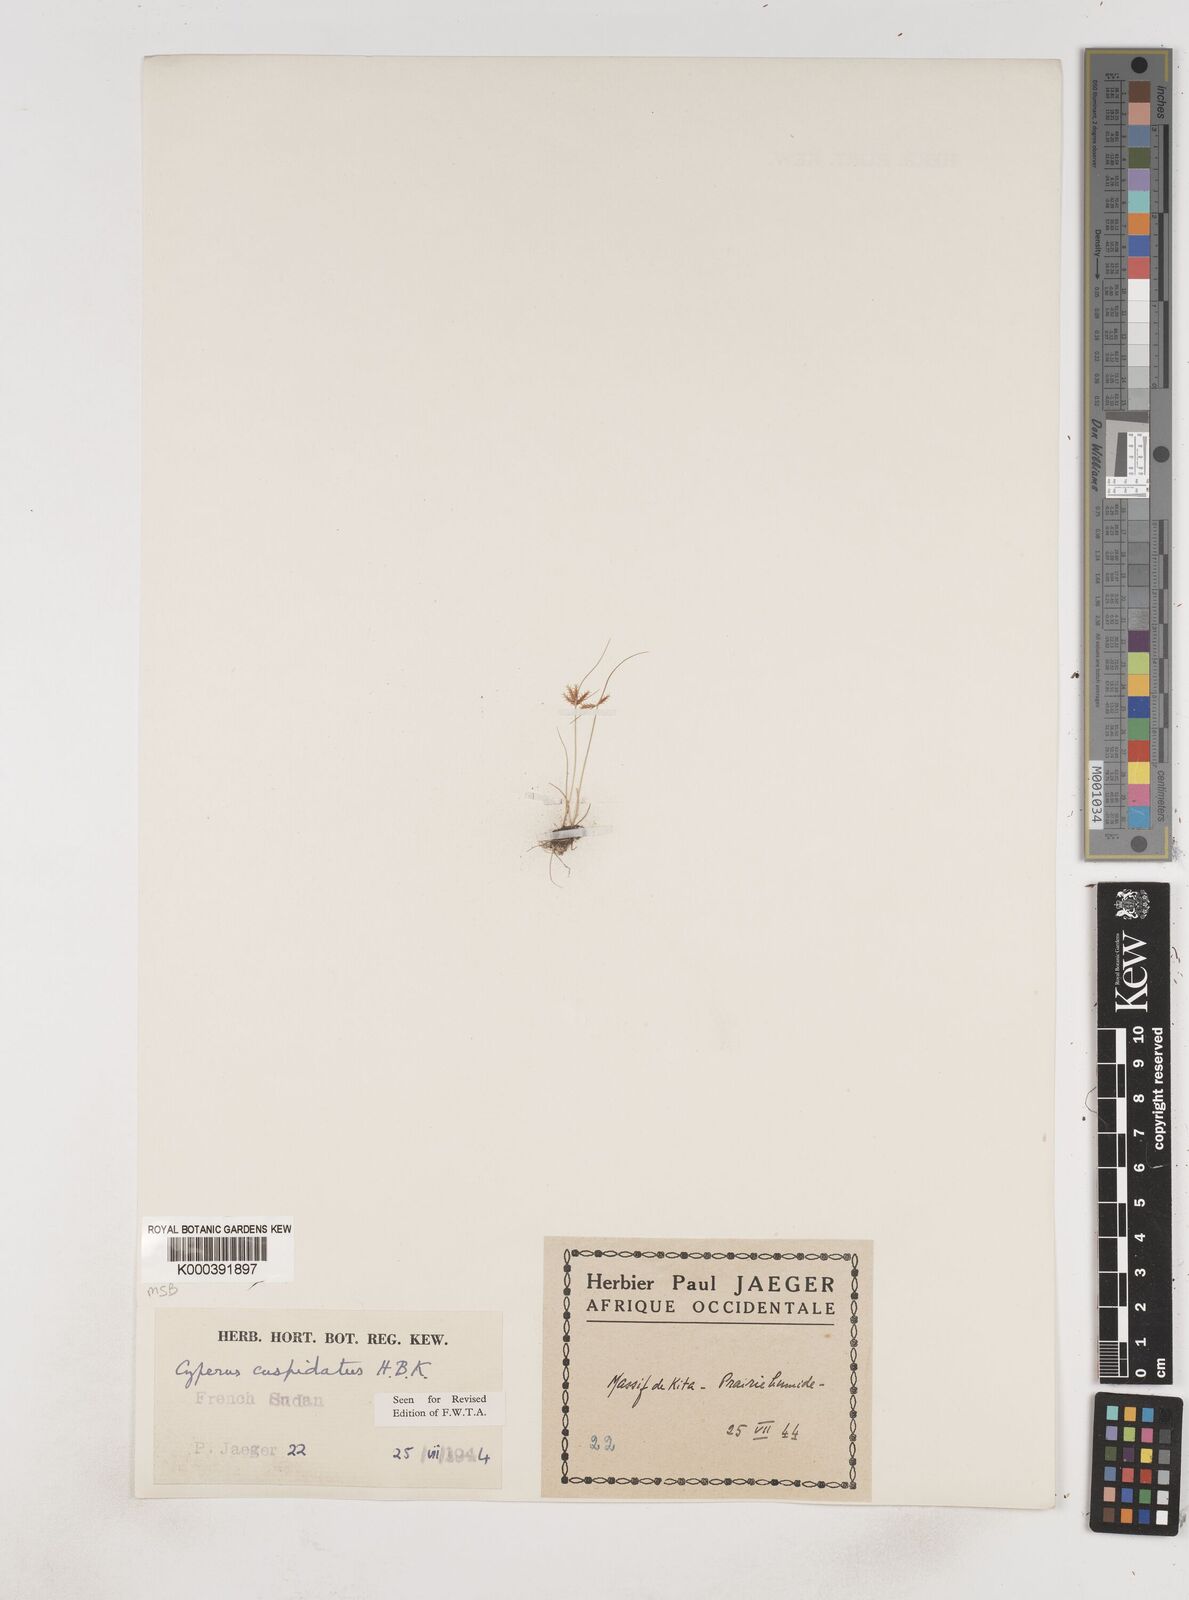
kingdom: Plantae
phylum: Tracheophyta
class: Liliopsida
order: Poales
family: Cyperaceae
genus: Cyperus
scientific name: Cyperus cuspidatus
